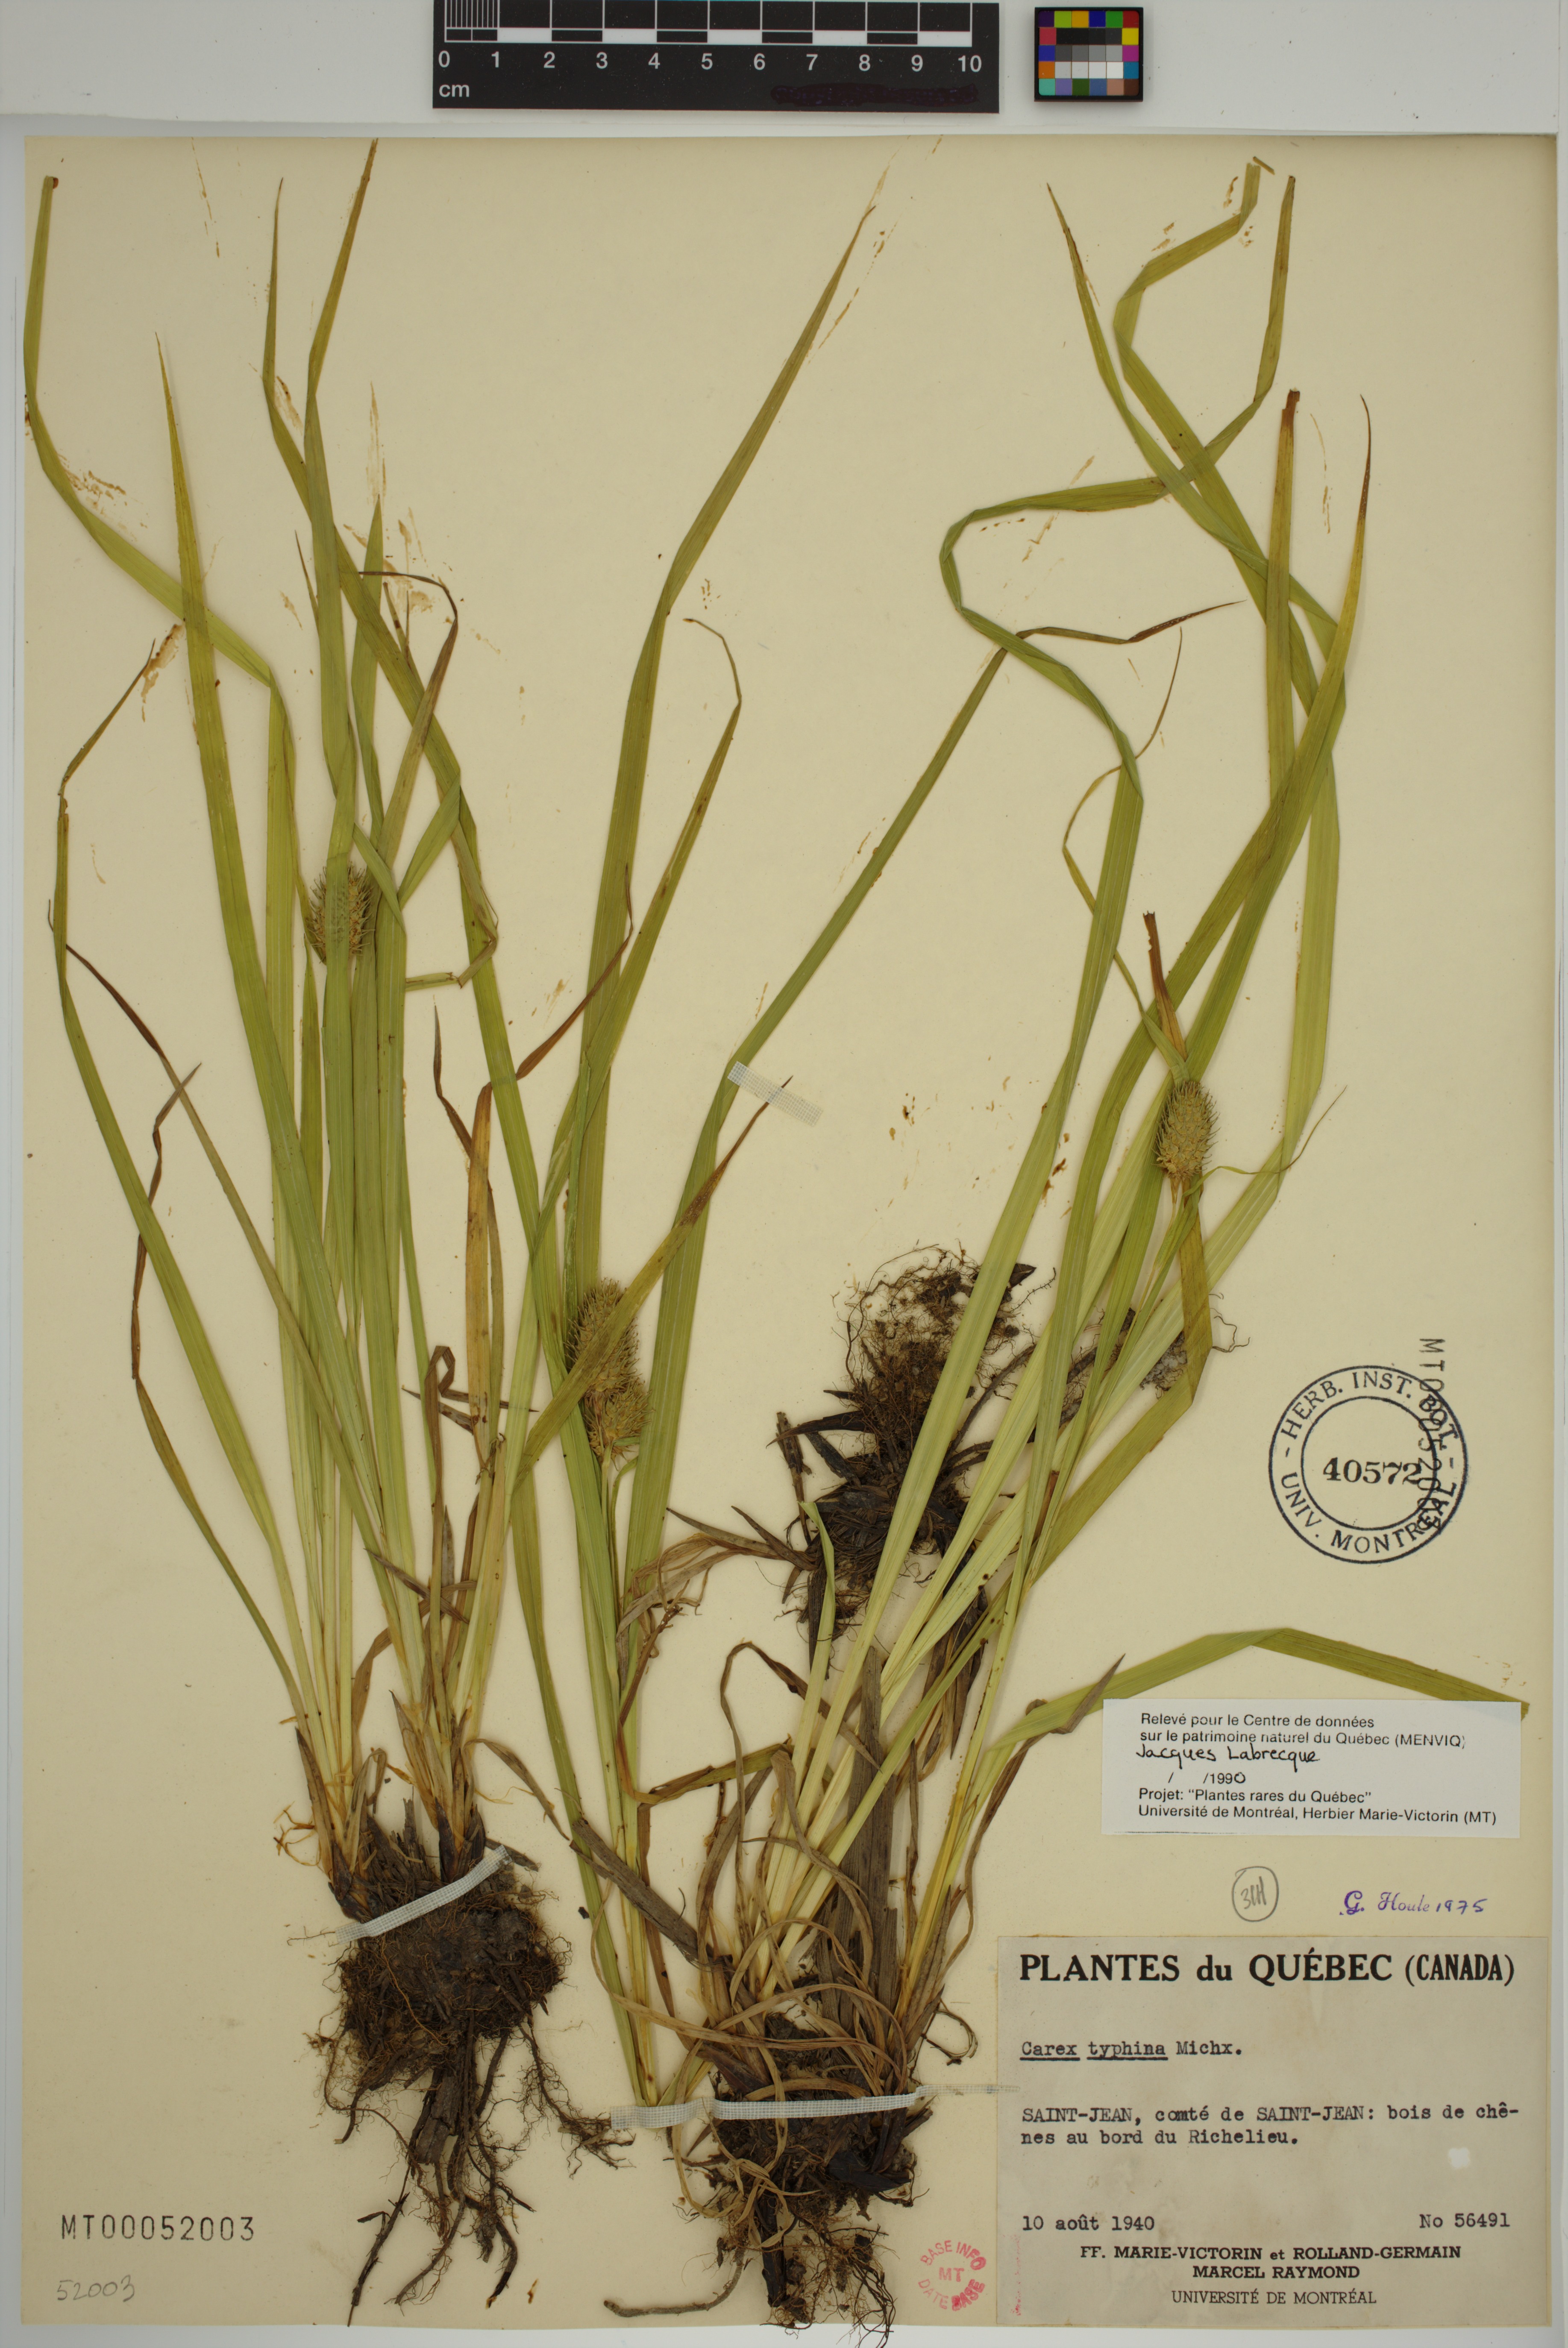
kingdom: Plantae
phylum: Tracheophyta
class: Liliopsida
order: Poales
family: Cyperaceae
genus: Carex
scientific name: Carex typhina
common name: Cattail sedge
